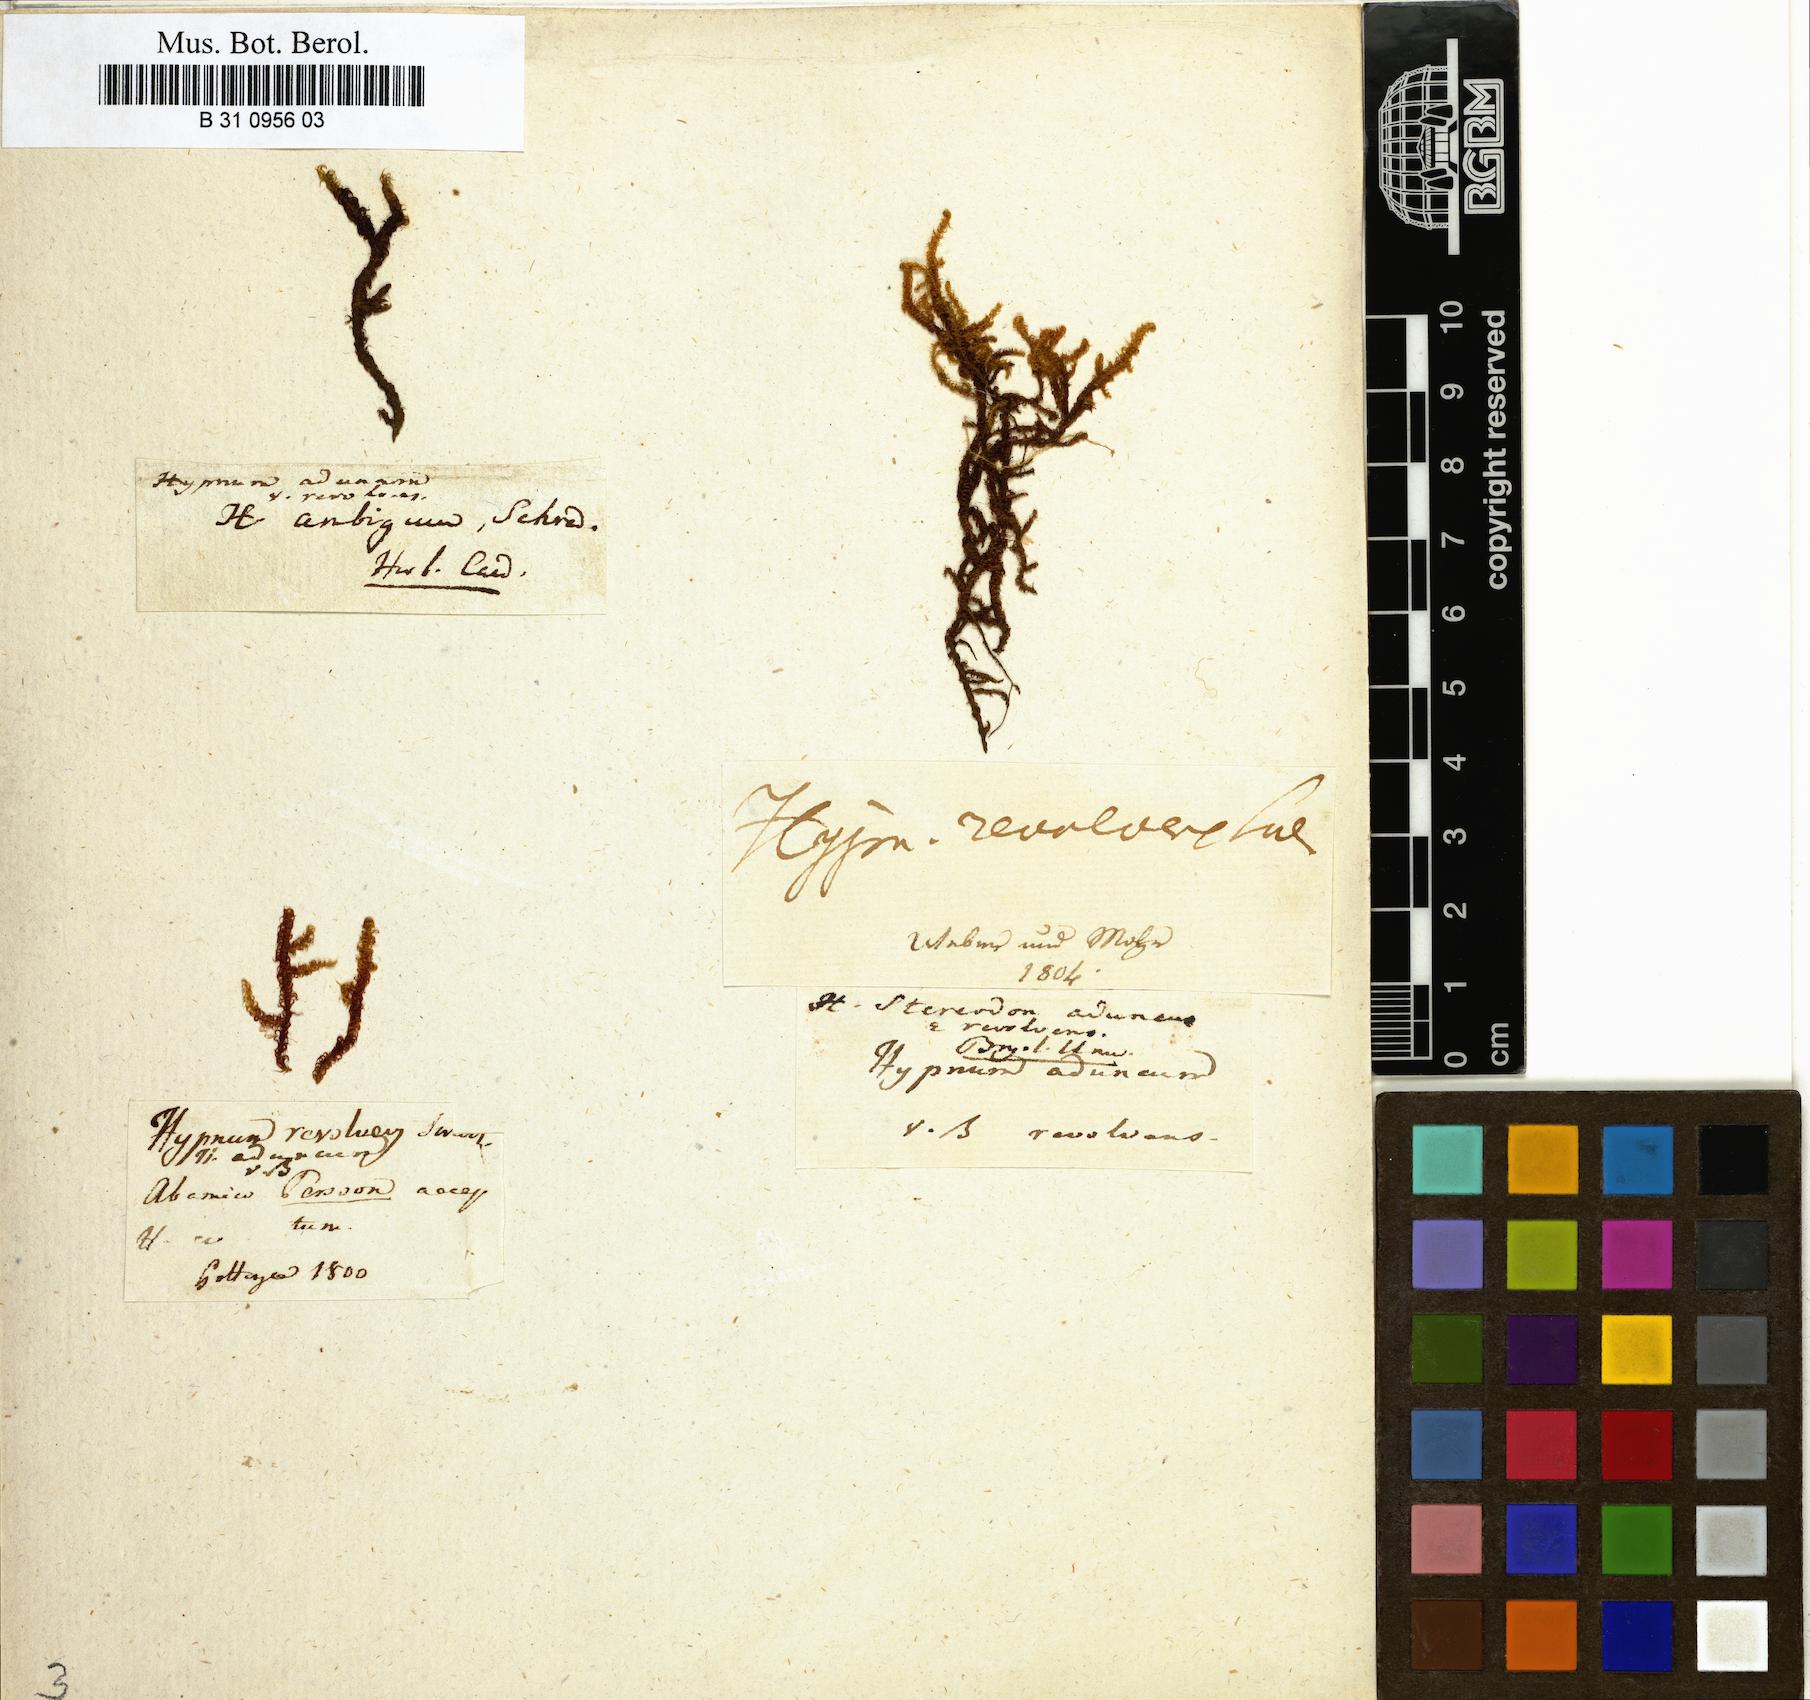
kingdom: Plantae
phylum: Bryophyta
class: Bryopsida
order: Hypnales
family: Amblystegiaceae
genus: Drepanocladus
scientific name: Drepanocladus aduncus
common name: Knieff's hook moss
